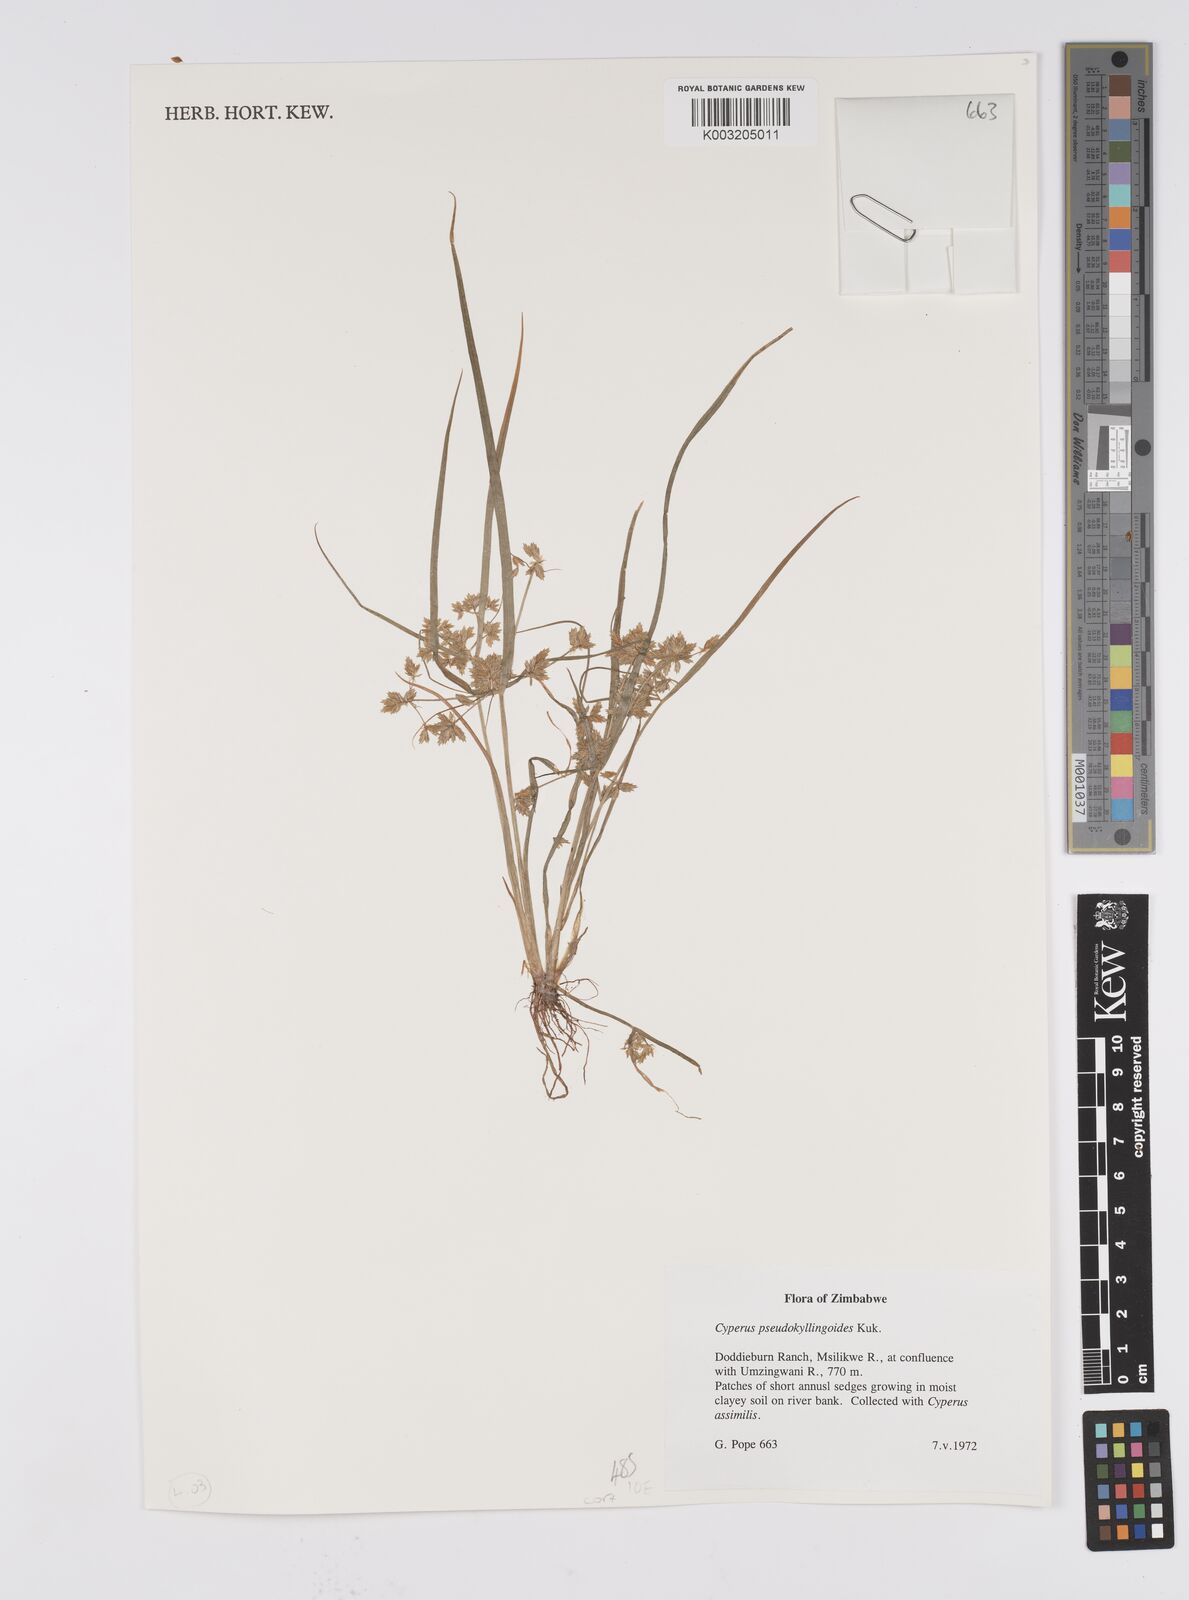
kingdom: Plantae
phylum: Tracheophyta
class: Liliopsida
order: Poales
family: Cyperaceae
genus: Cyperus
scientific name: Cyperus cyperoides
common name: Pacific island flat sedge
